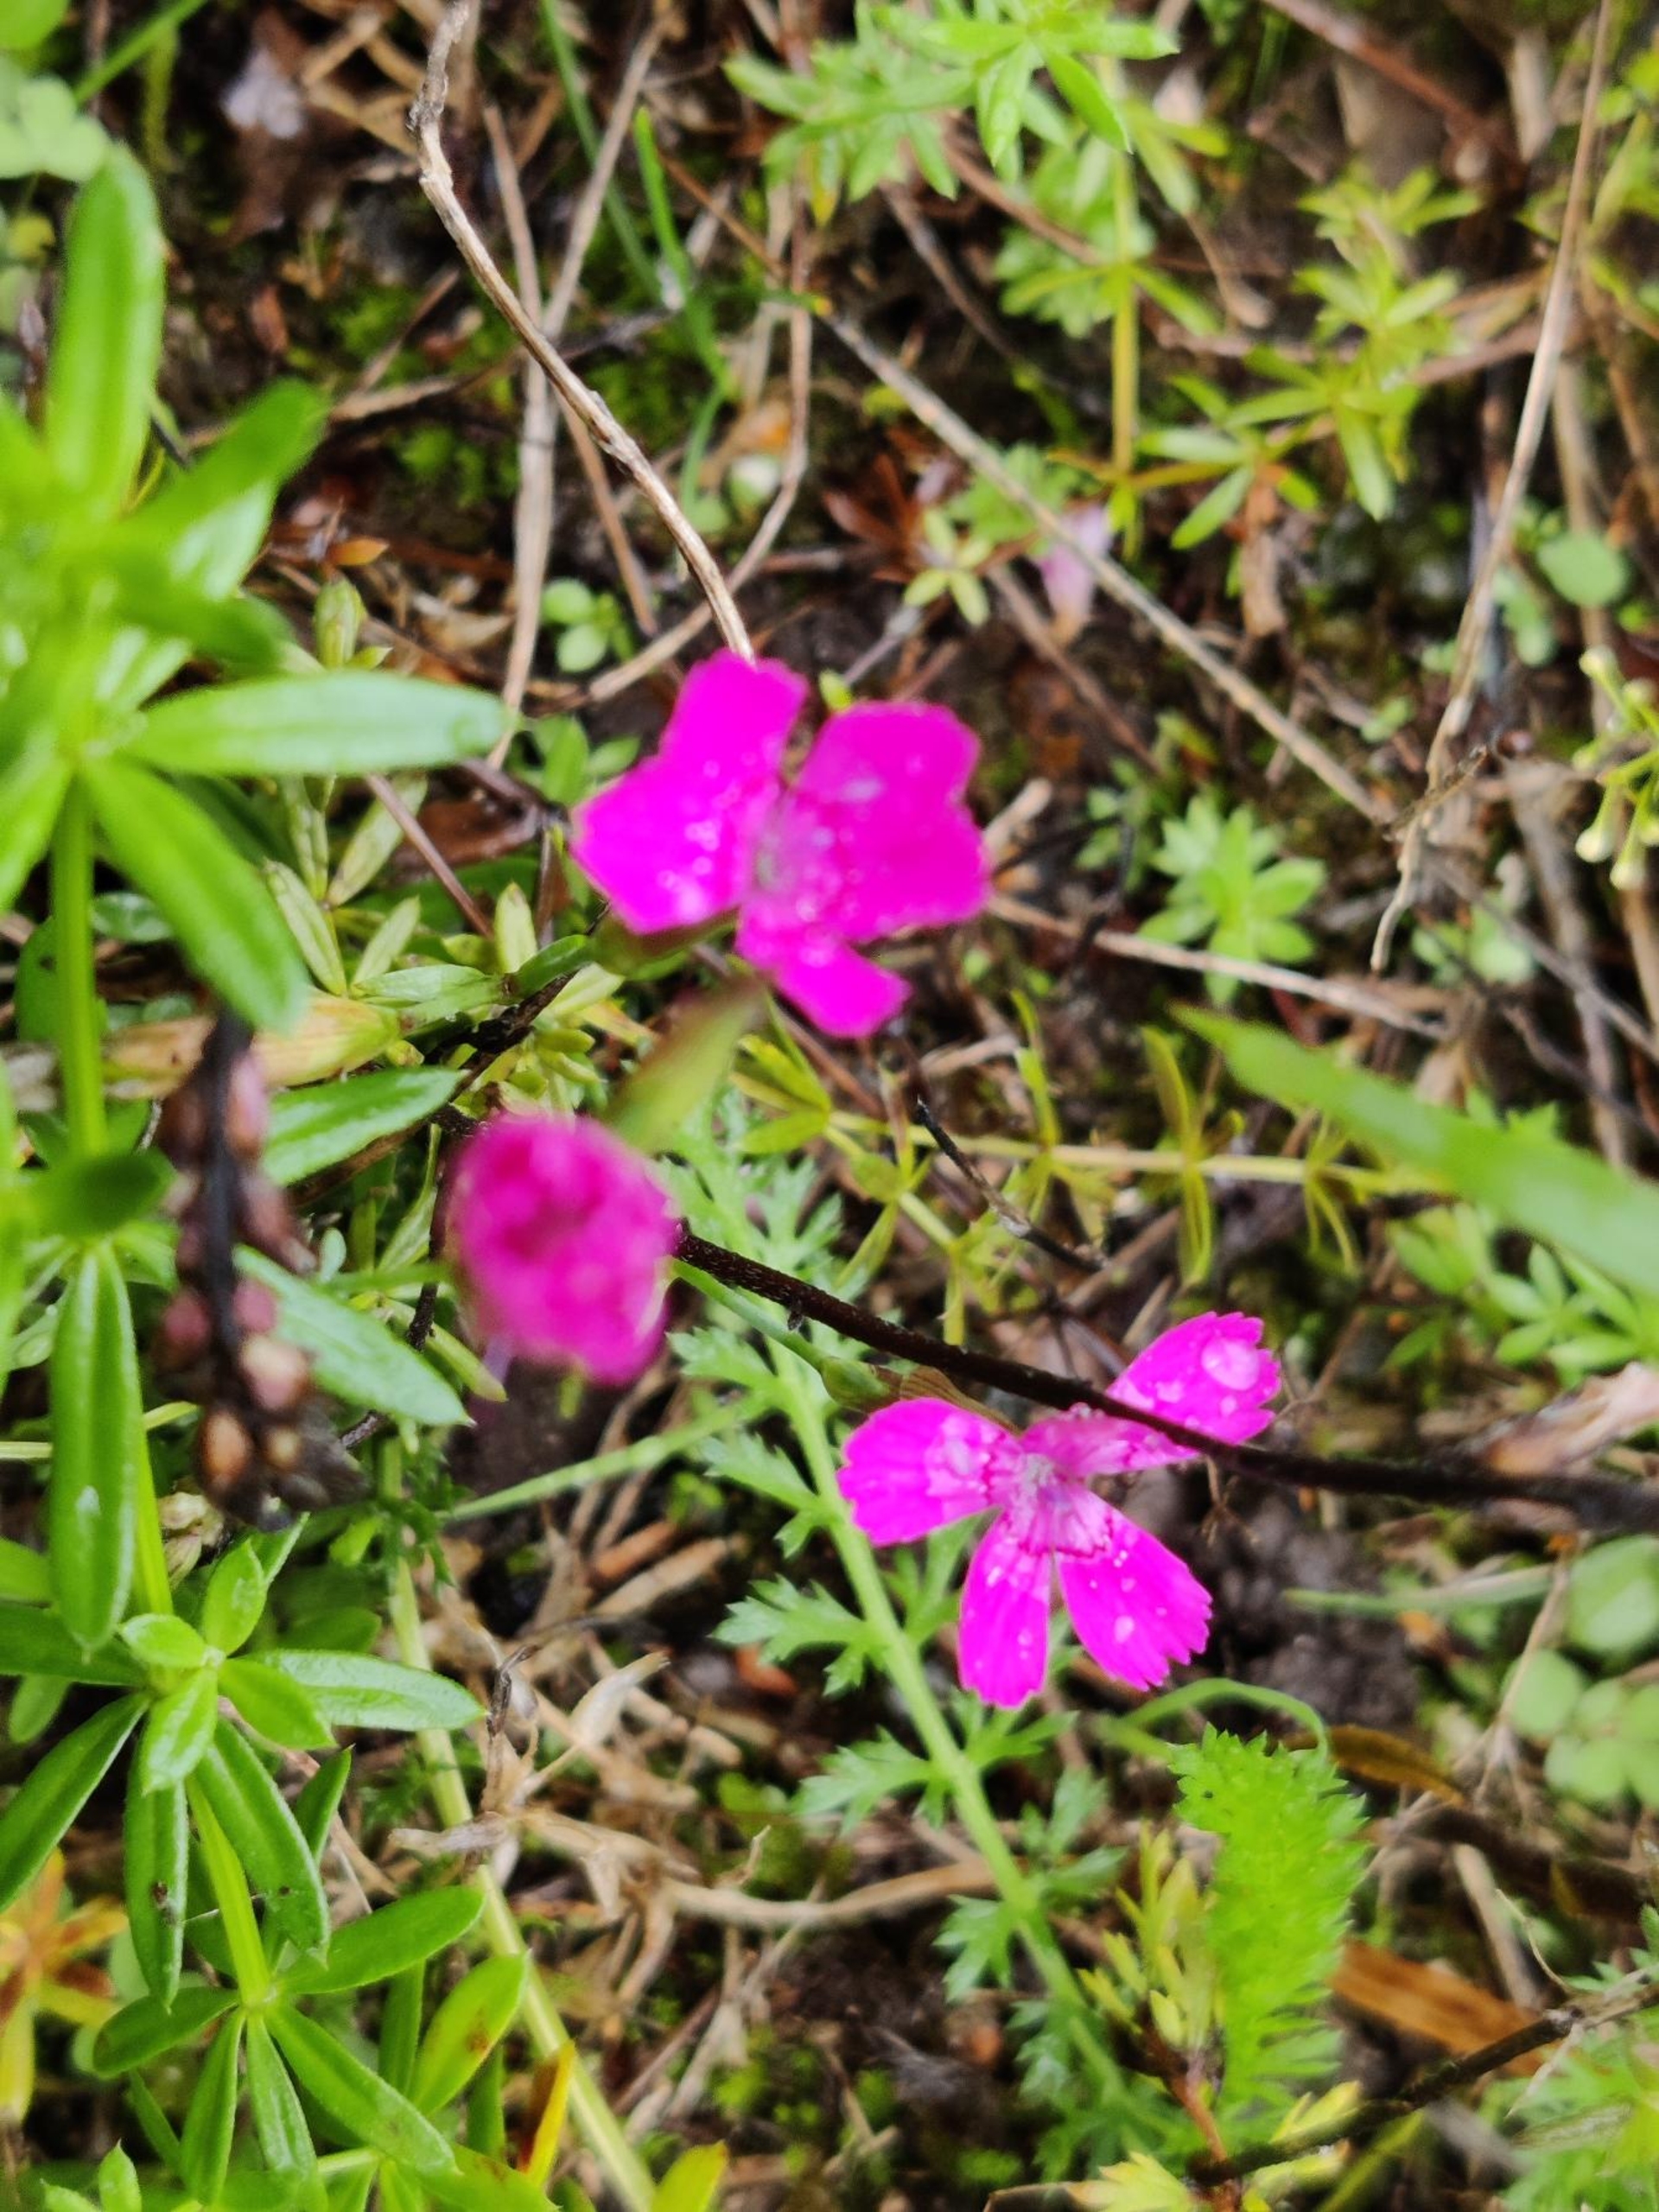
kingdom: Plantae
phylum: Tracheophyta
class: Magnoliopsida
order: Caryophyllales
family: Caryophyllaceae
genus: Dianthus
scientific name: Dianthus deltoides
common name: Bakke-nellike
